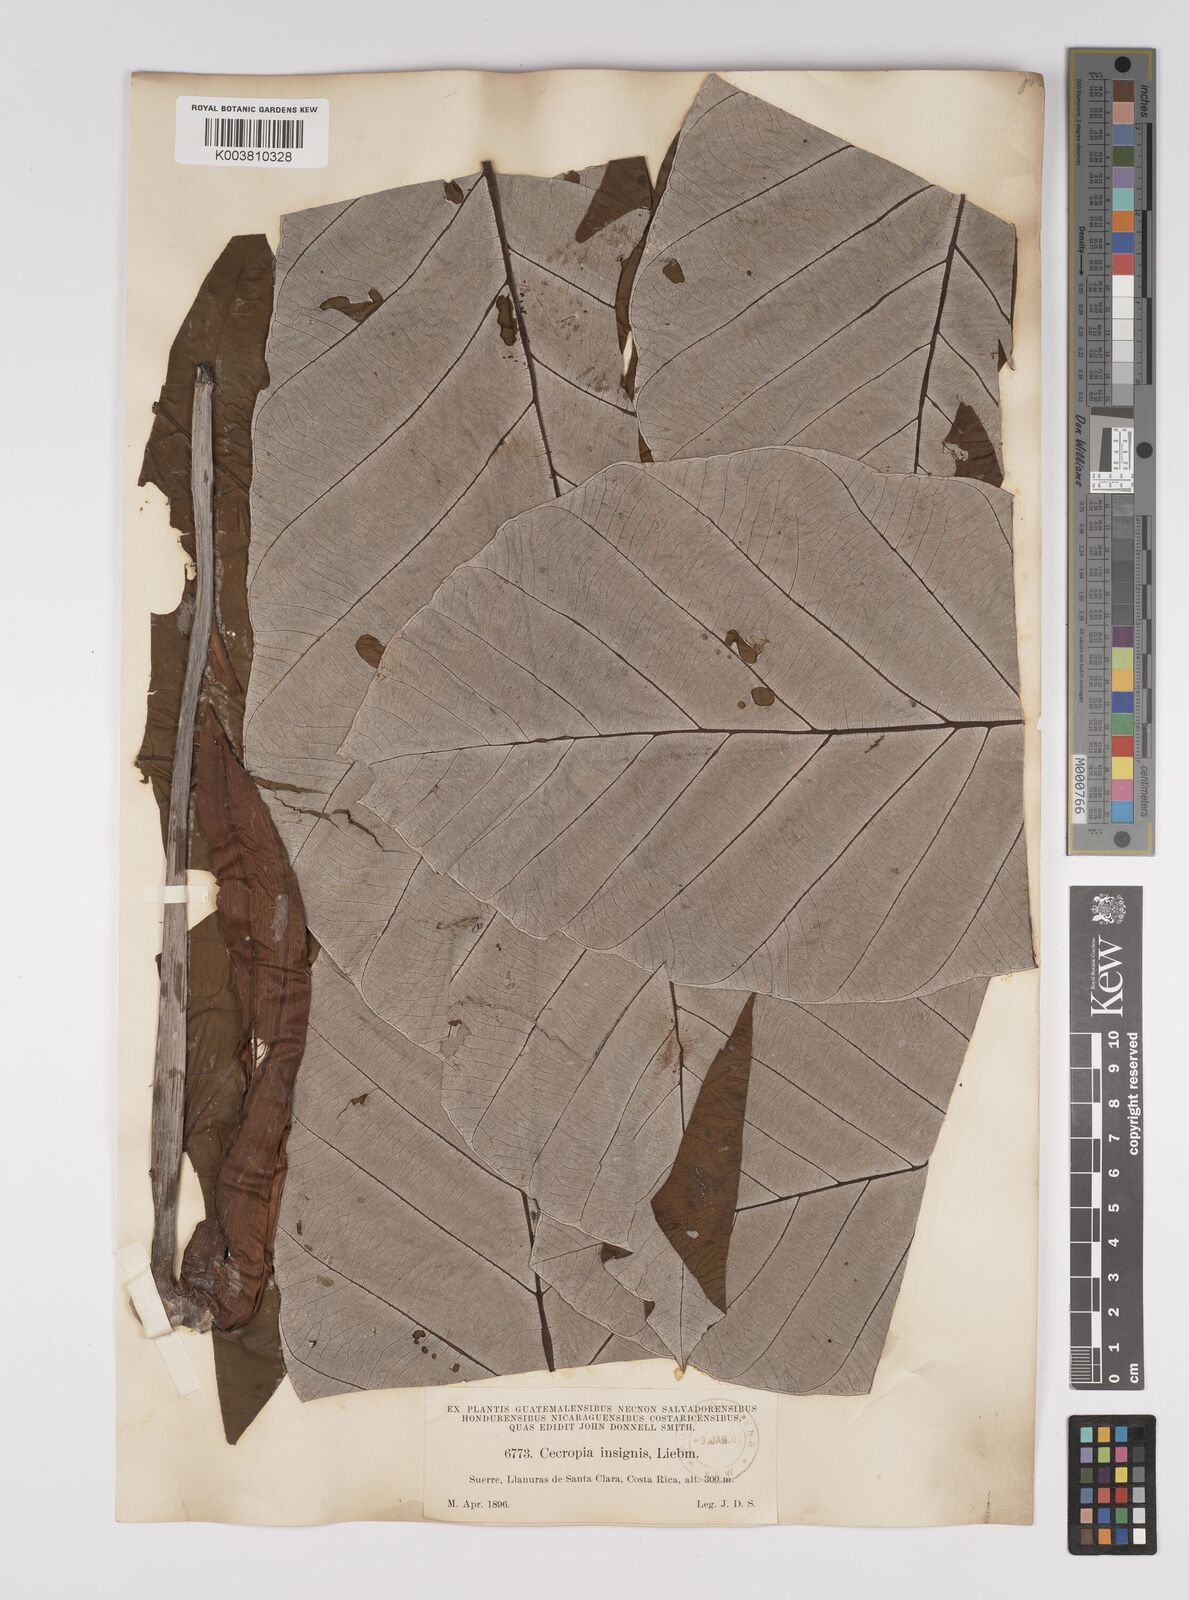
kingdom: Plantae
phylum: Tracheophyta
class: Magnoliopsida
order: Rosales
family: Urticaceae
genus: Cecropia
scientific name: Cecropia peltata
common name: Trumpet-tree
